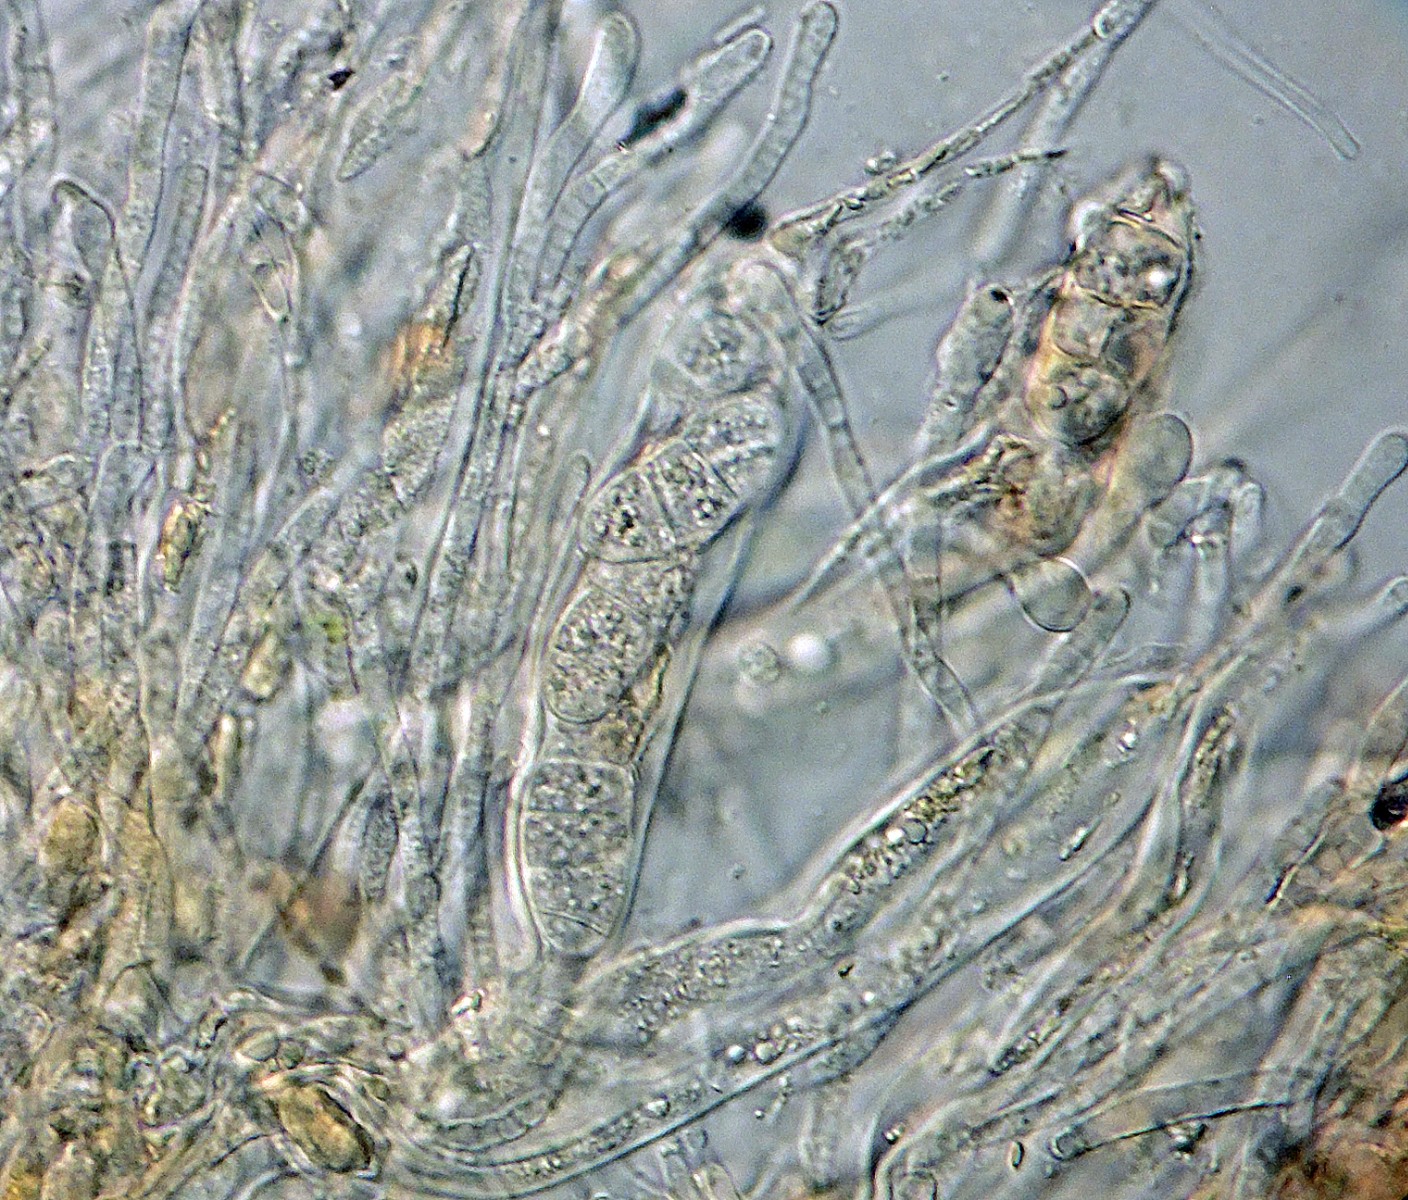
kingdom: Fungi
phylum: Ascomycota
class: Leotiomycetes
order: Helotiales
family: Dermateaceae
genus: Pezicula
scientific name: Pezicula cinnamomea
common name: kanel-klyngeskive
